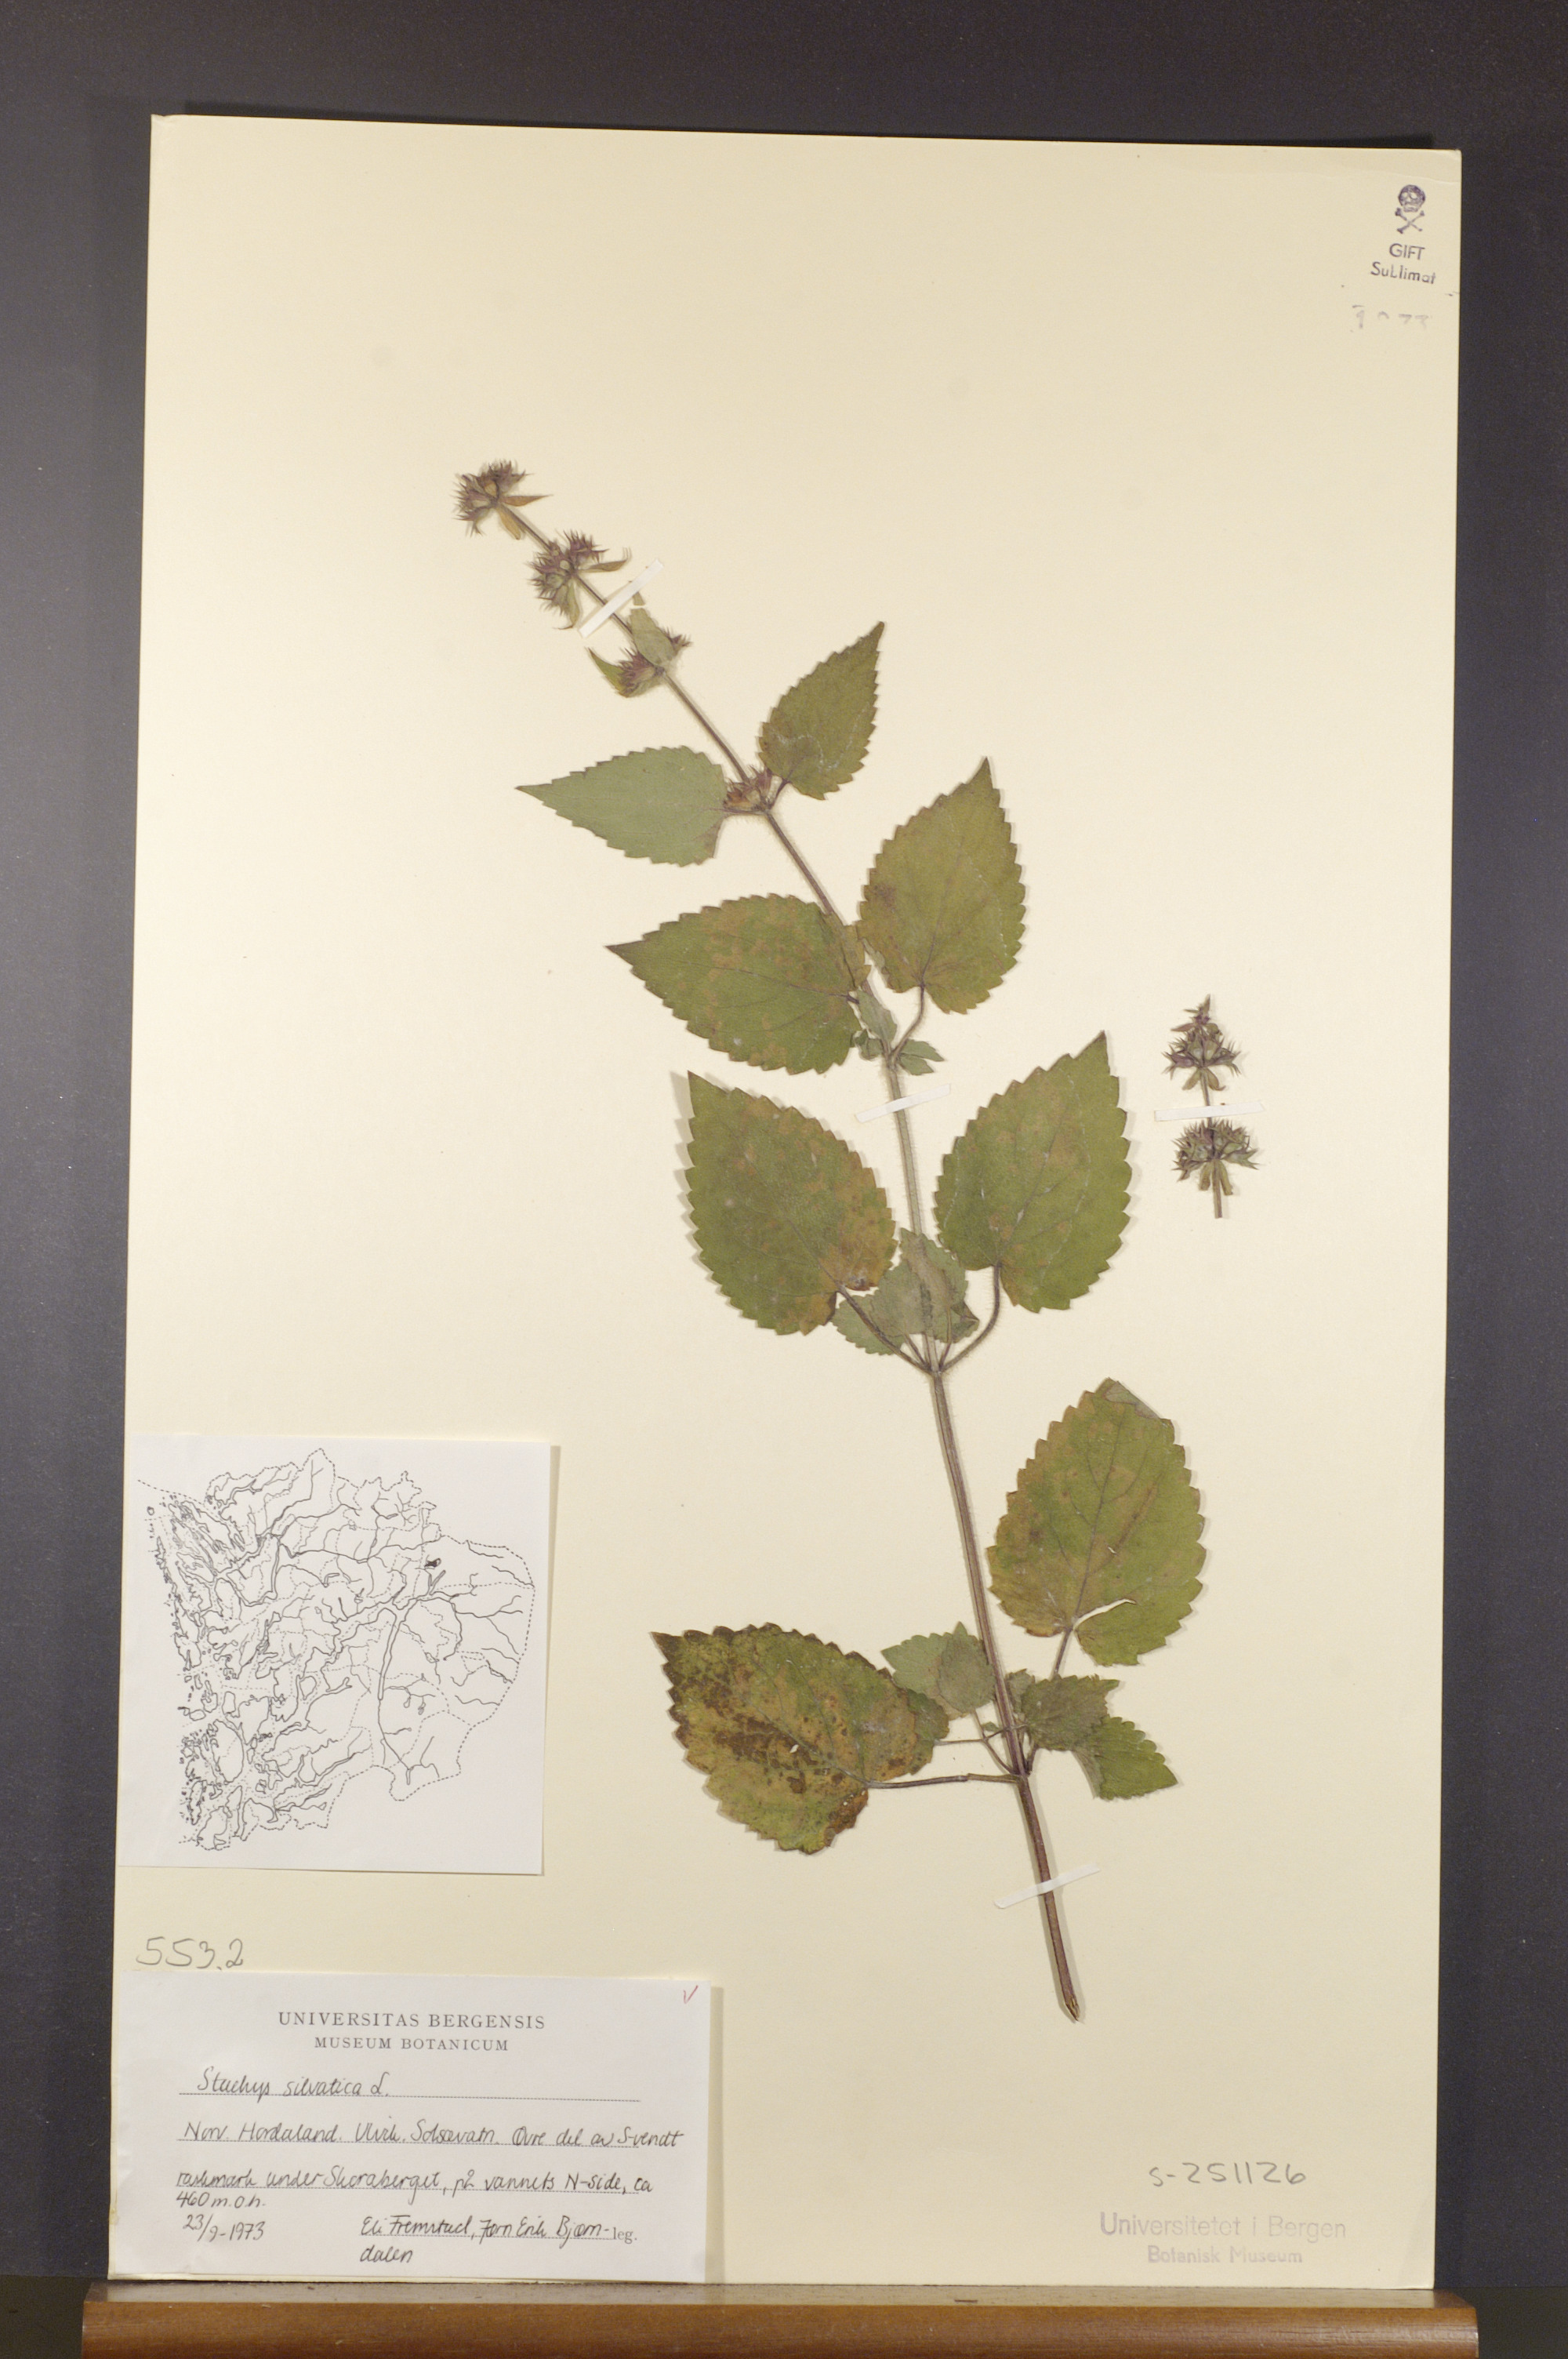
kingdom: Plantae
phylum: Tracheophyta
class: Magnoliopsida
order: Lamiales
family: Lamiaceae
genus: Stachys
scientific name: Stachys sylvatica
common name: Hedge woundwort
